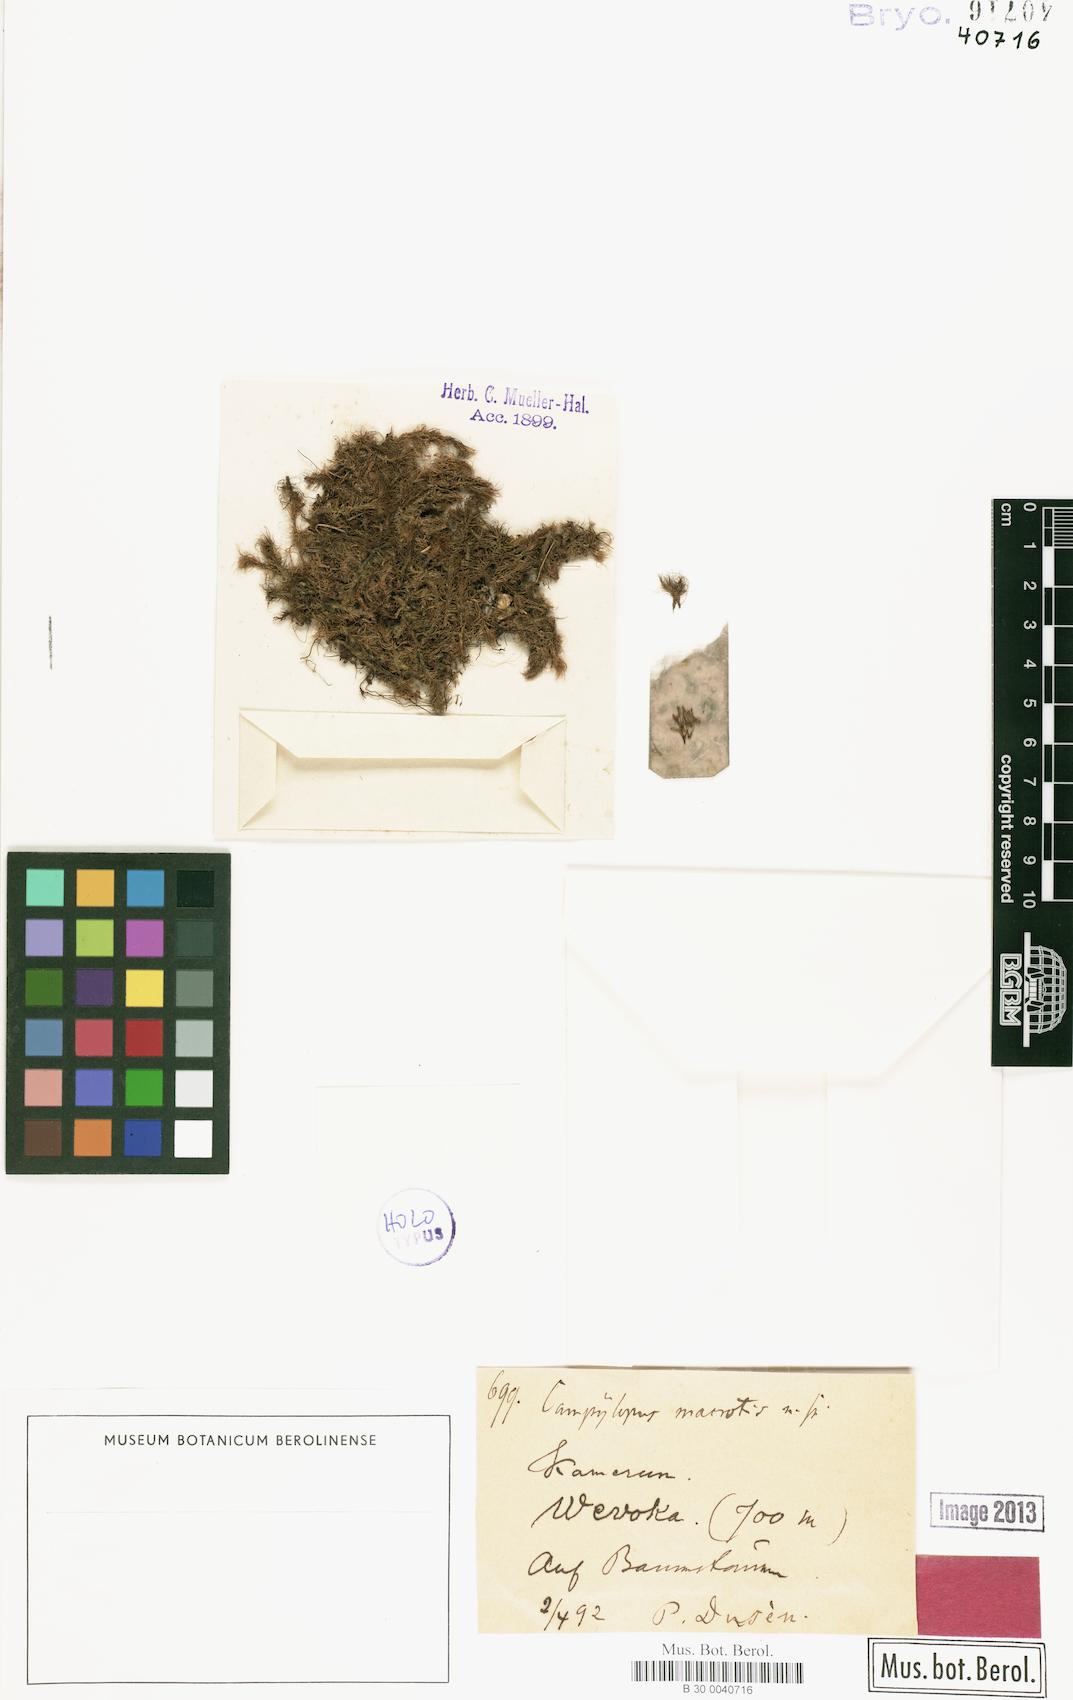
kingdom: Plantae
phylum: Bryophyta
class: Bryopsida
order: Dicranales
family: Leucobryaceae
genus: Campylopus
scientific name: Campylopus savannarum
